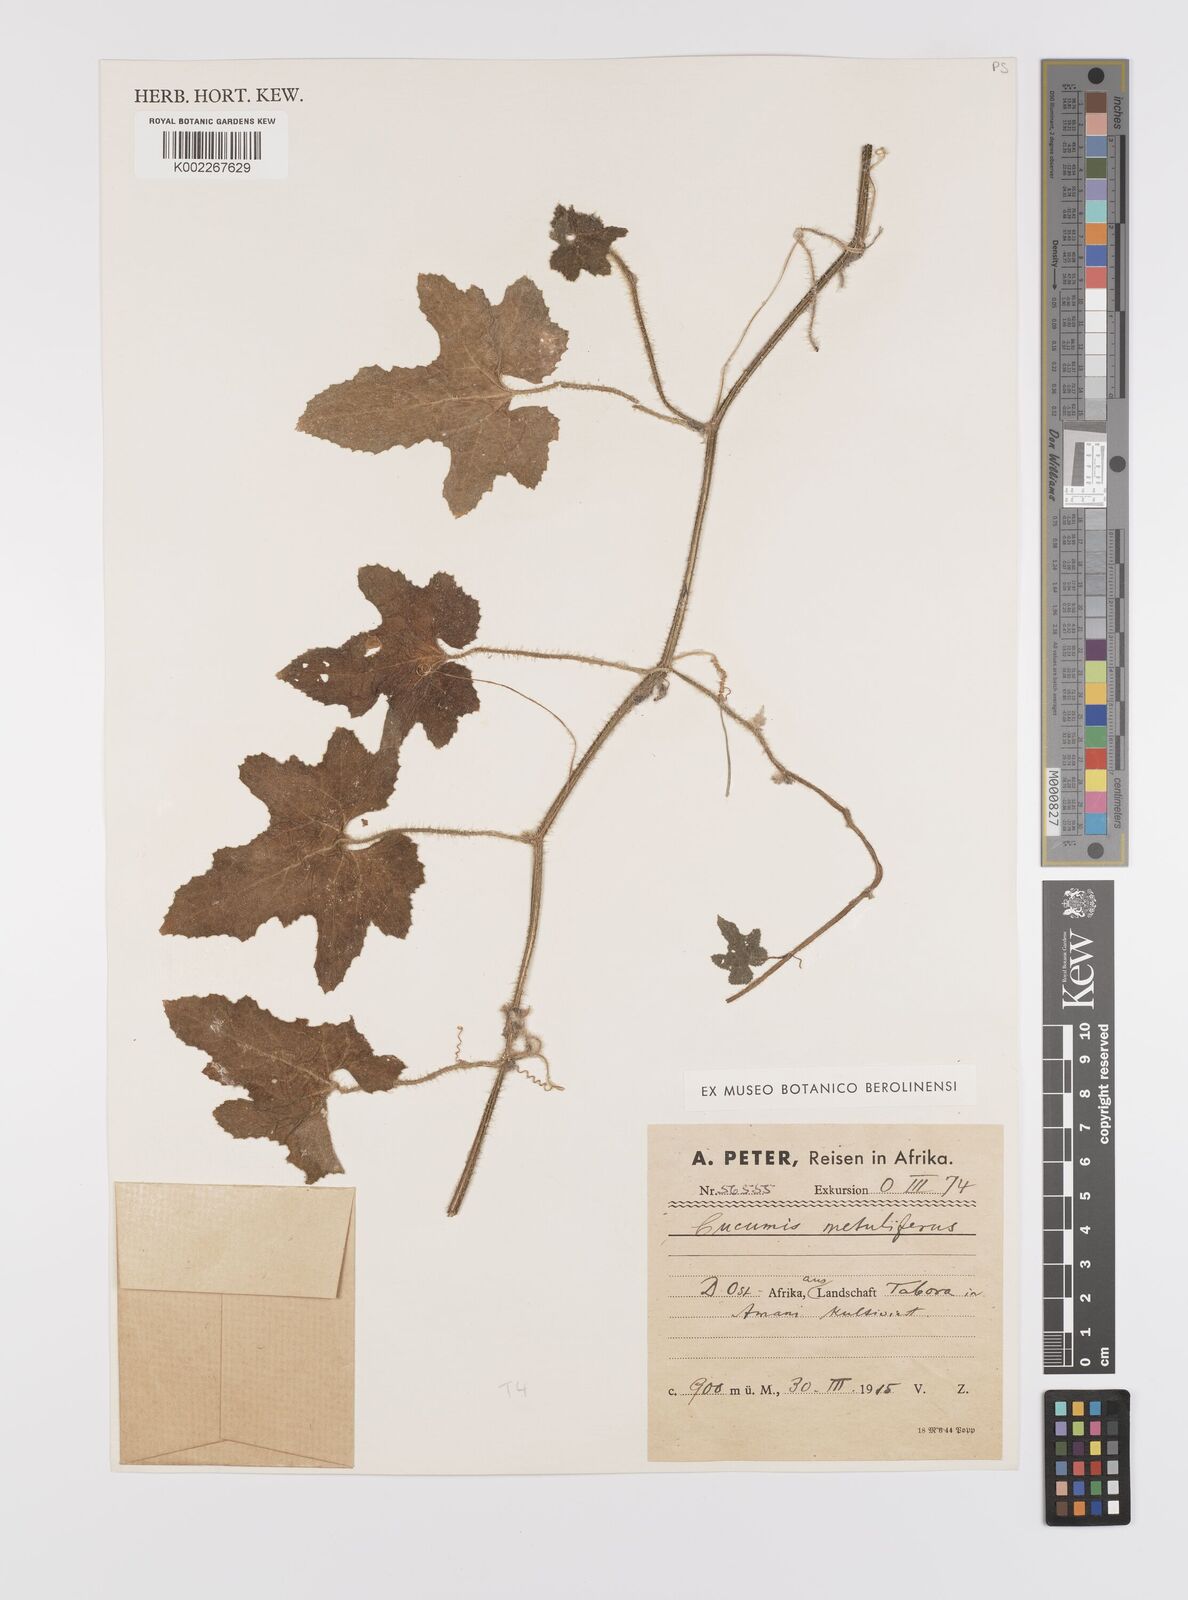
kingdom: Plantae
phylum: Tracheophyta
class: Magnoliopsida
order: Cucurbitales
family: Cucurbitaceae
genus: Cucumis
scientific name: Cucumis metuliferus
